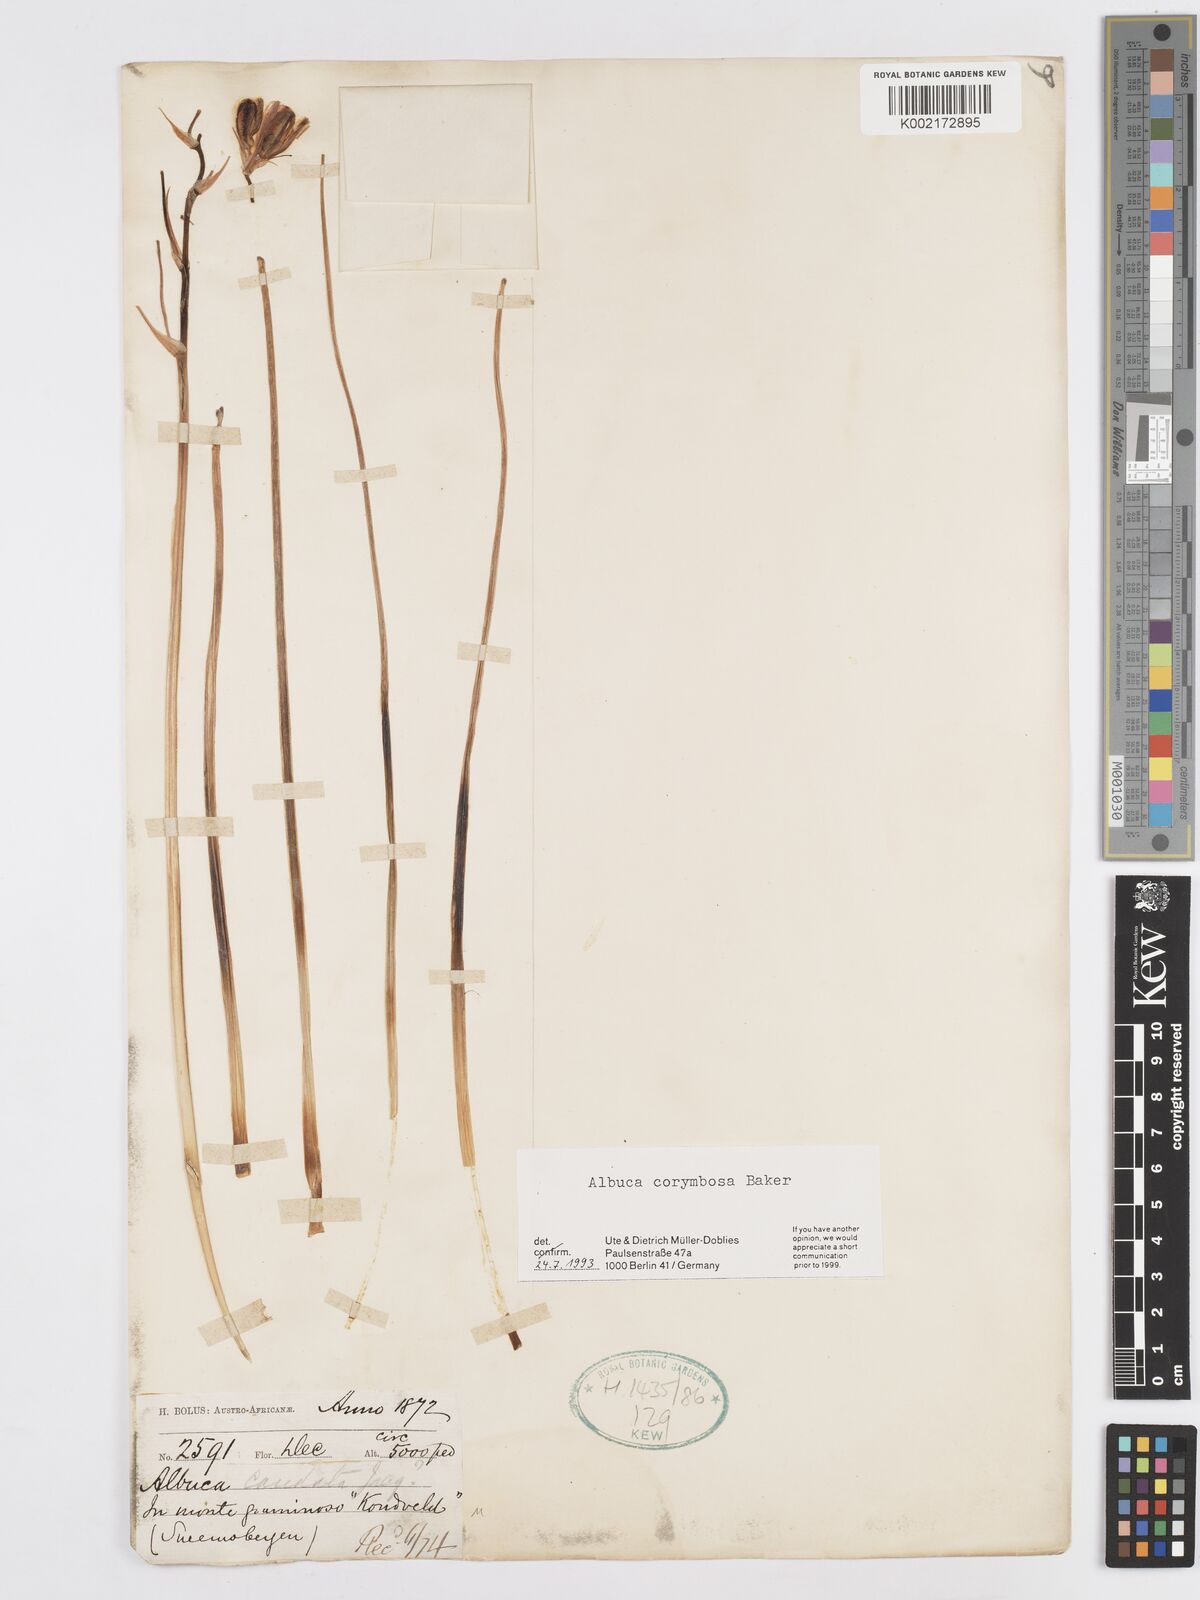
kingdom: Plantae
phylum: Tracheophyta
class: Liliopsida
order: Asparagales
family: Asparagaceae
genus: Albuca
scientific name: Albuca corymbosa
